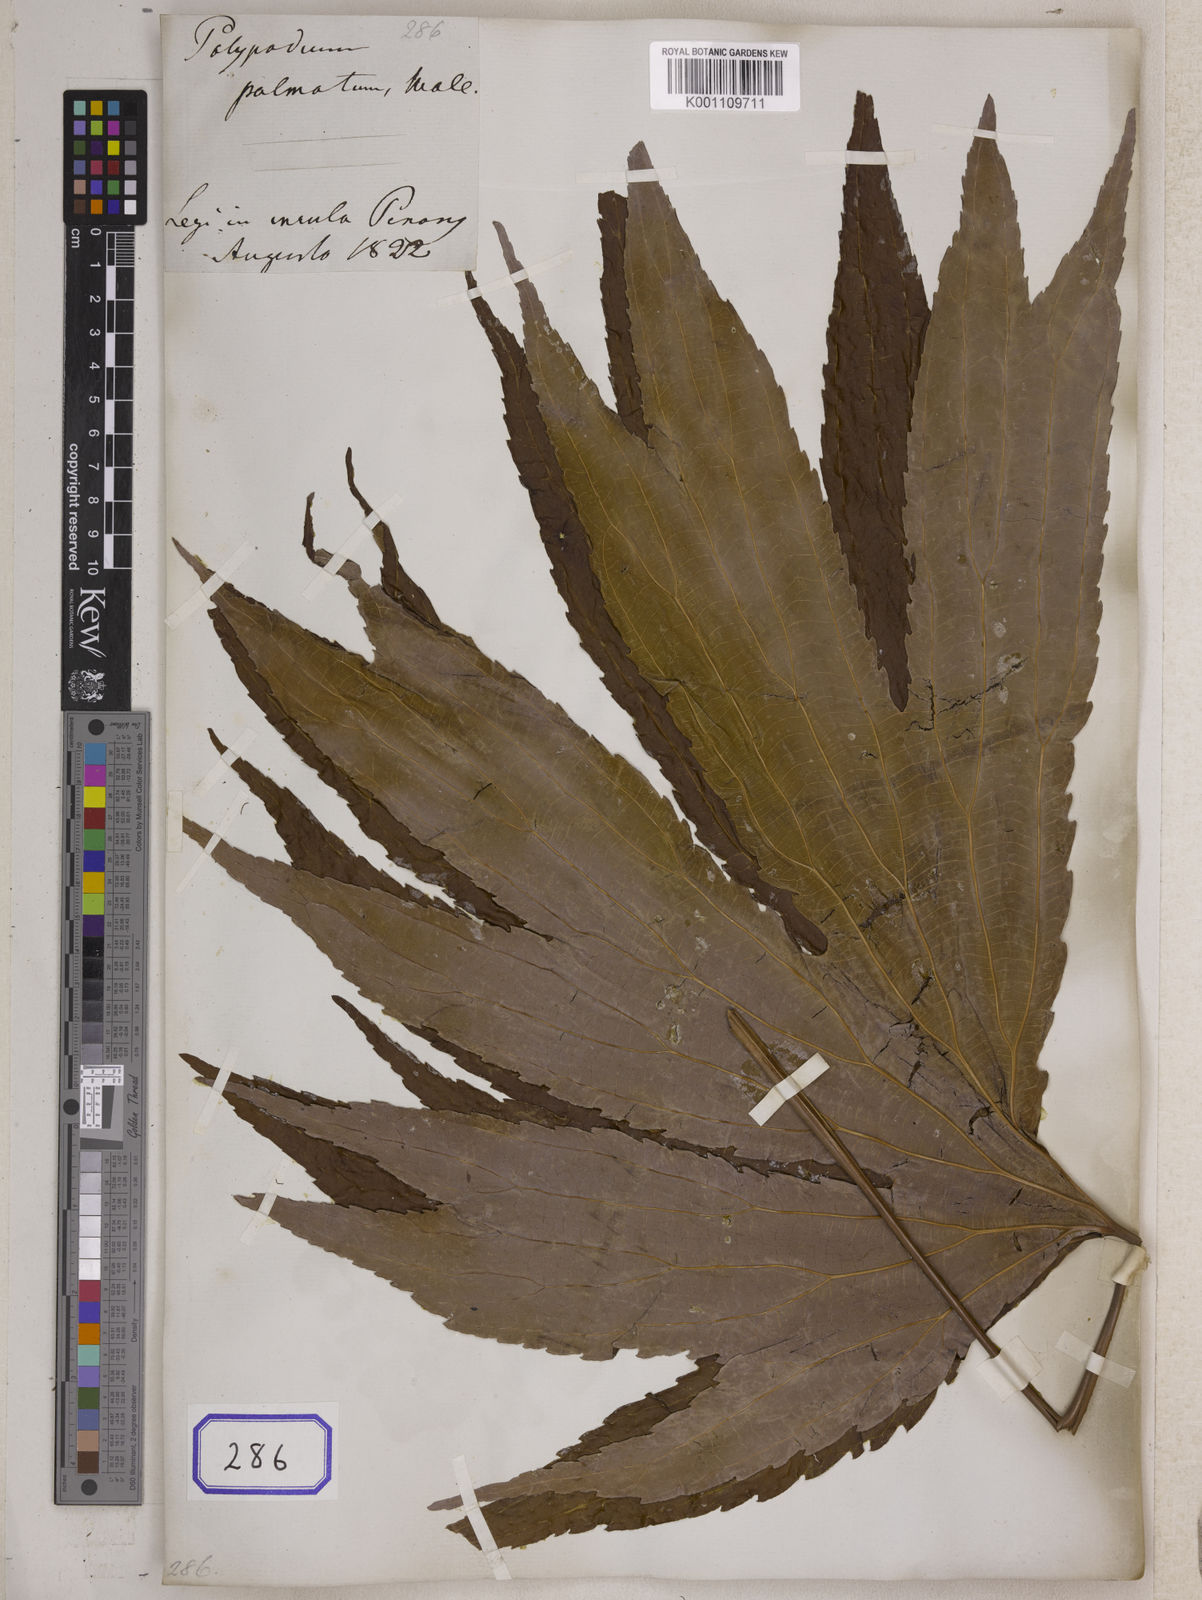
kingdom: Plantae
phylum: Tracheophyta
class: Polypodiopsida
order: Gleicheniales
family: Dipteridaceae
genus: Dipteris
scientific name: Dipteris conjugata
